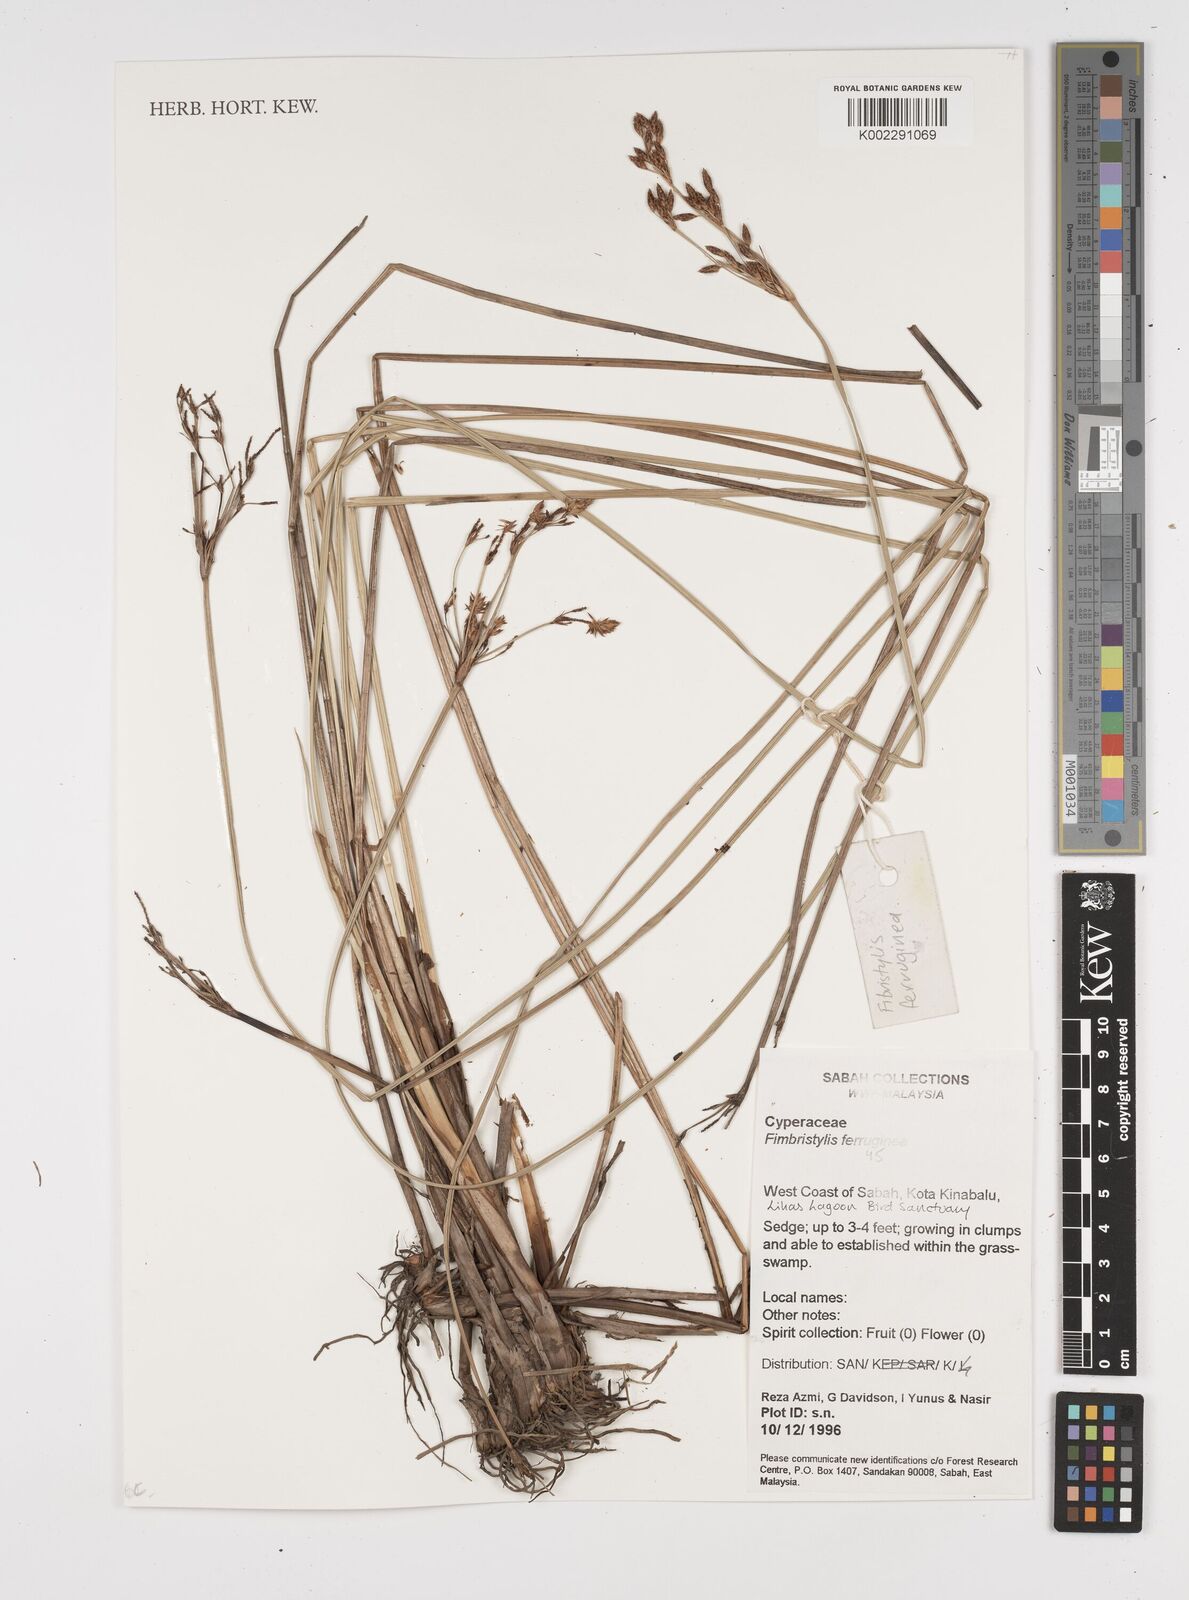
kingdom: Plantae
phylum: Tracheophyta
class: Liliopsida
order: Poales
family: Cyperaceae
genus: Fimbristylis
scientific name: Fimbristylis ferruginea
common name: West indian fimbry
